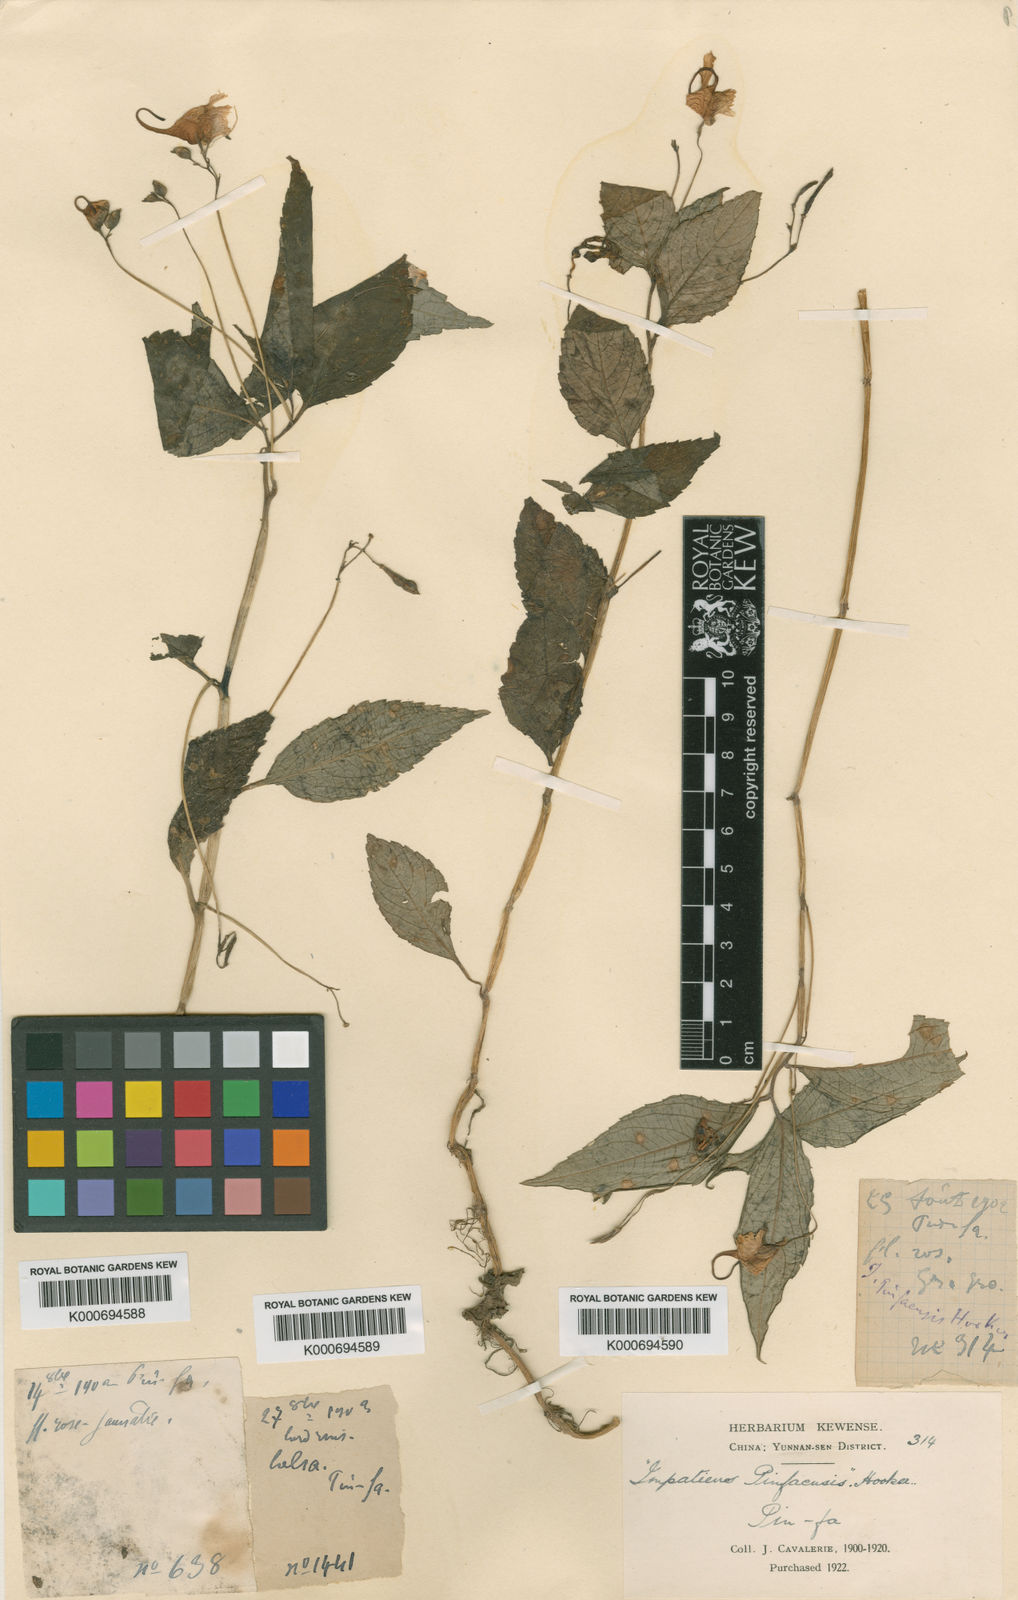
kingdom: Plantae
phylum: Tracheophyta
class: Magnoliopsida
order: Ericales
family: Balsaminaceae
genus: Impatiens
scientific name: Impatiens
